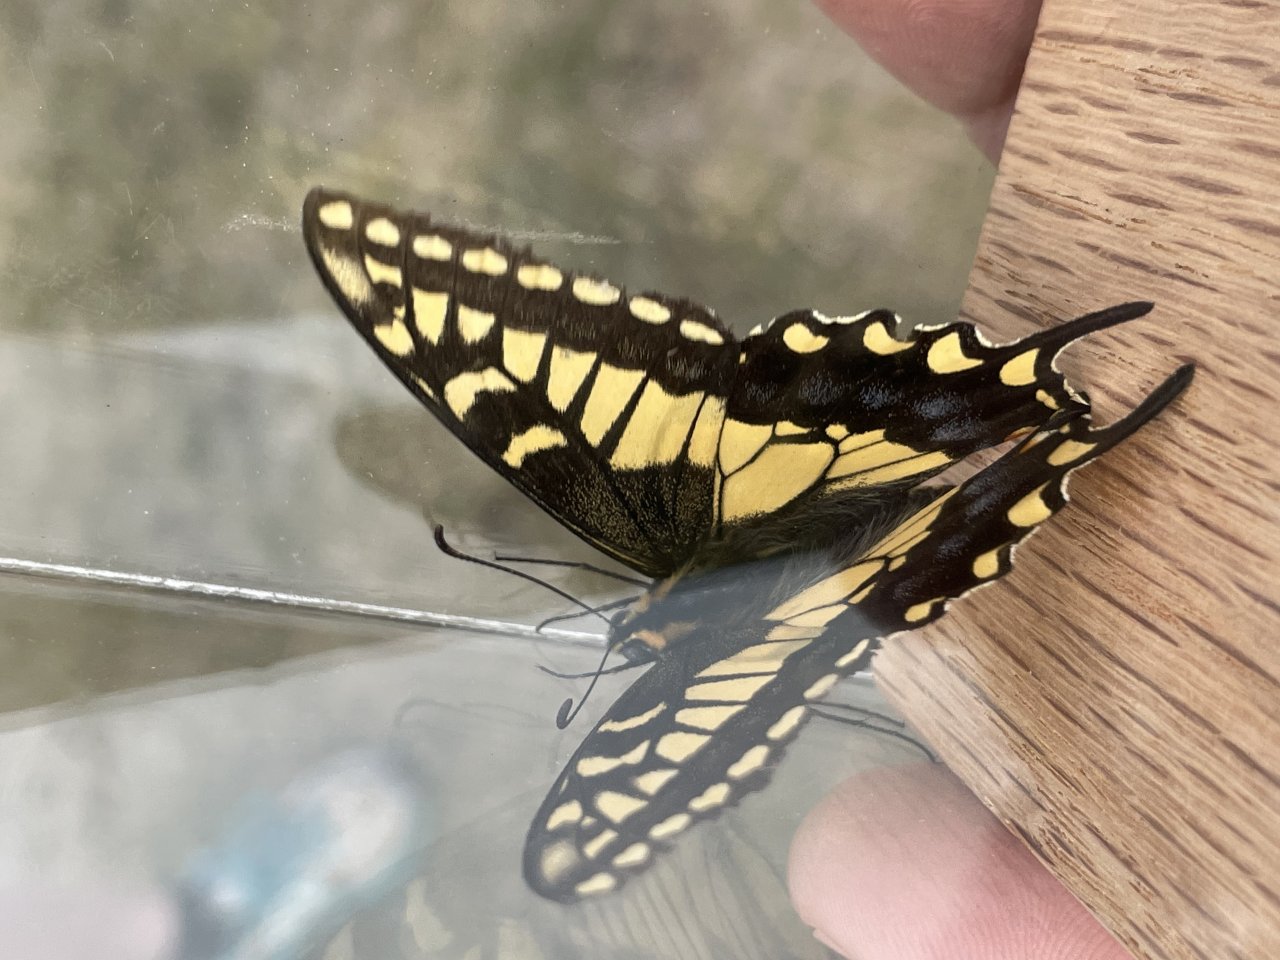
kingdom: Animalia
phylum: Arthropoda
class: Insecta
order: Lepidoptera
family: Papilionidae
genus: Papilio
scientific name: Papilio machaon
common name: Old World Swallowtail
